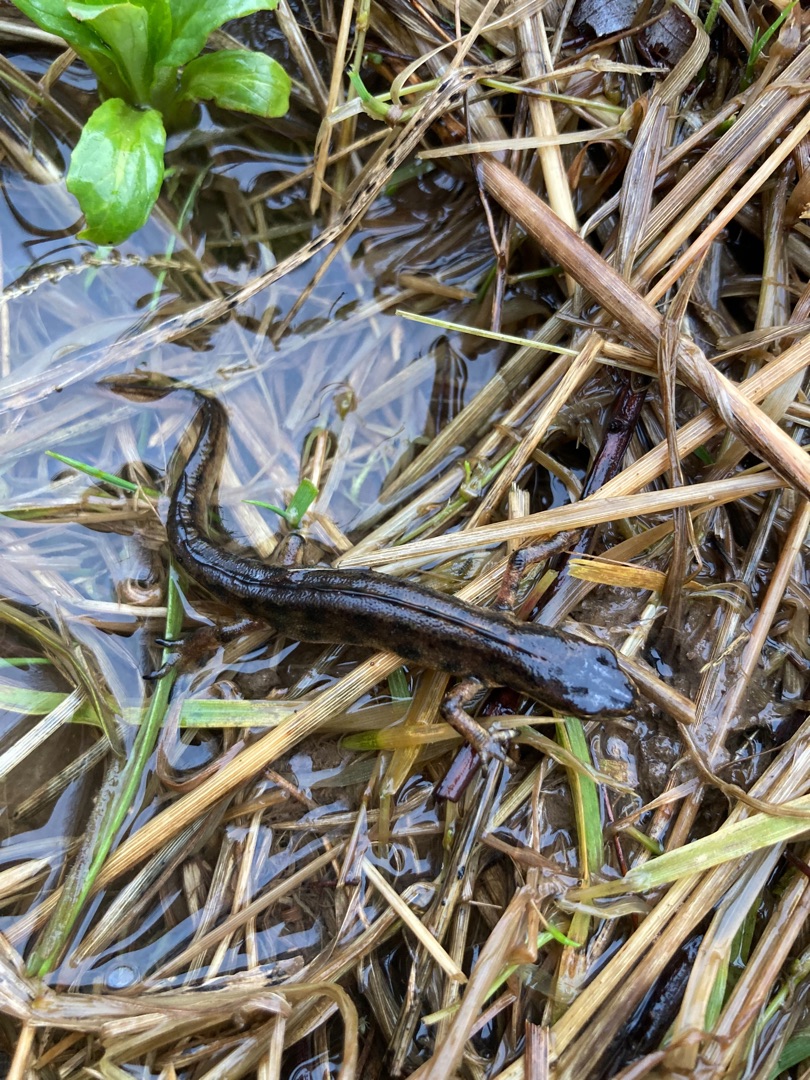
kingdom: Animalia
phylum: Chordata
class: Amphibia
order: Caudata
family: Salamandridae
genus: Lissotriton
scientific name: Lissotriton vulgaris
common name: Lille vandsalamander
